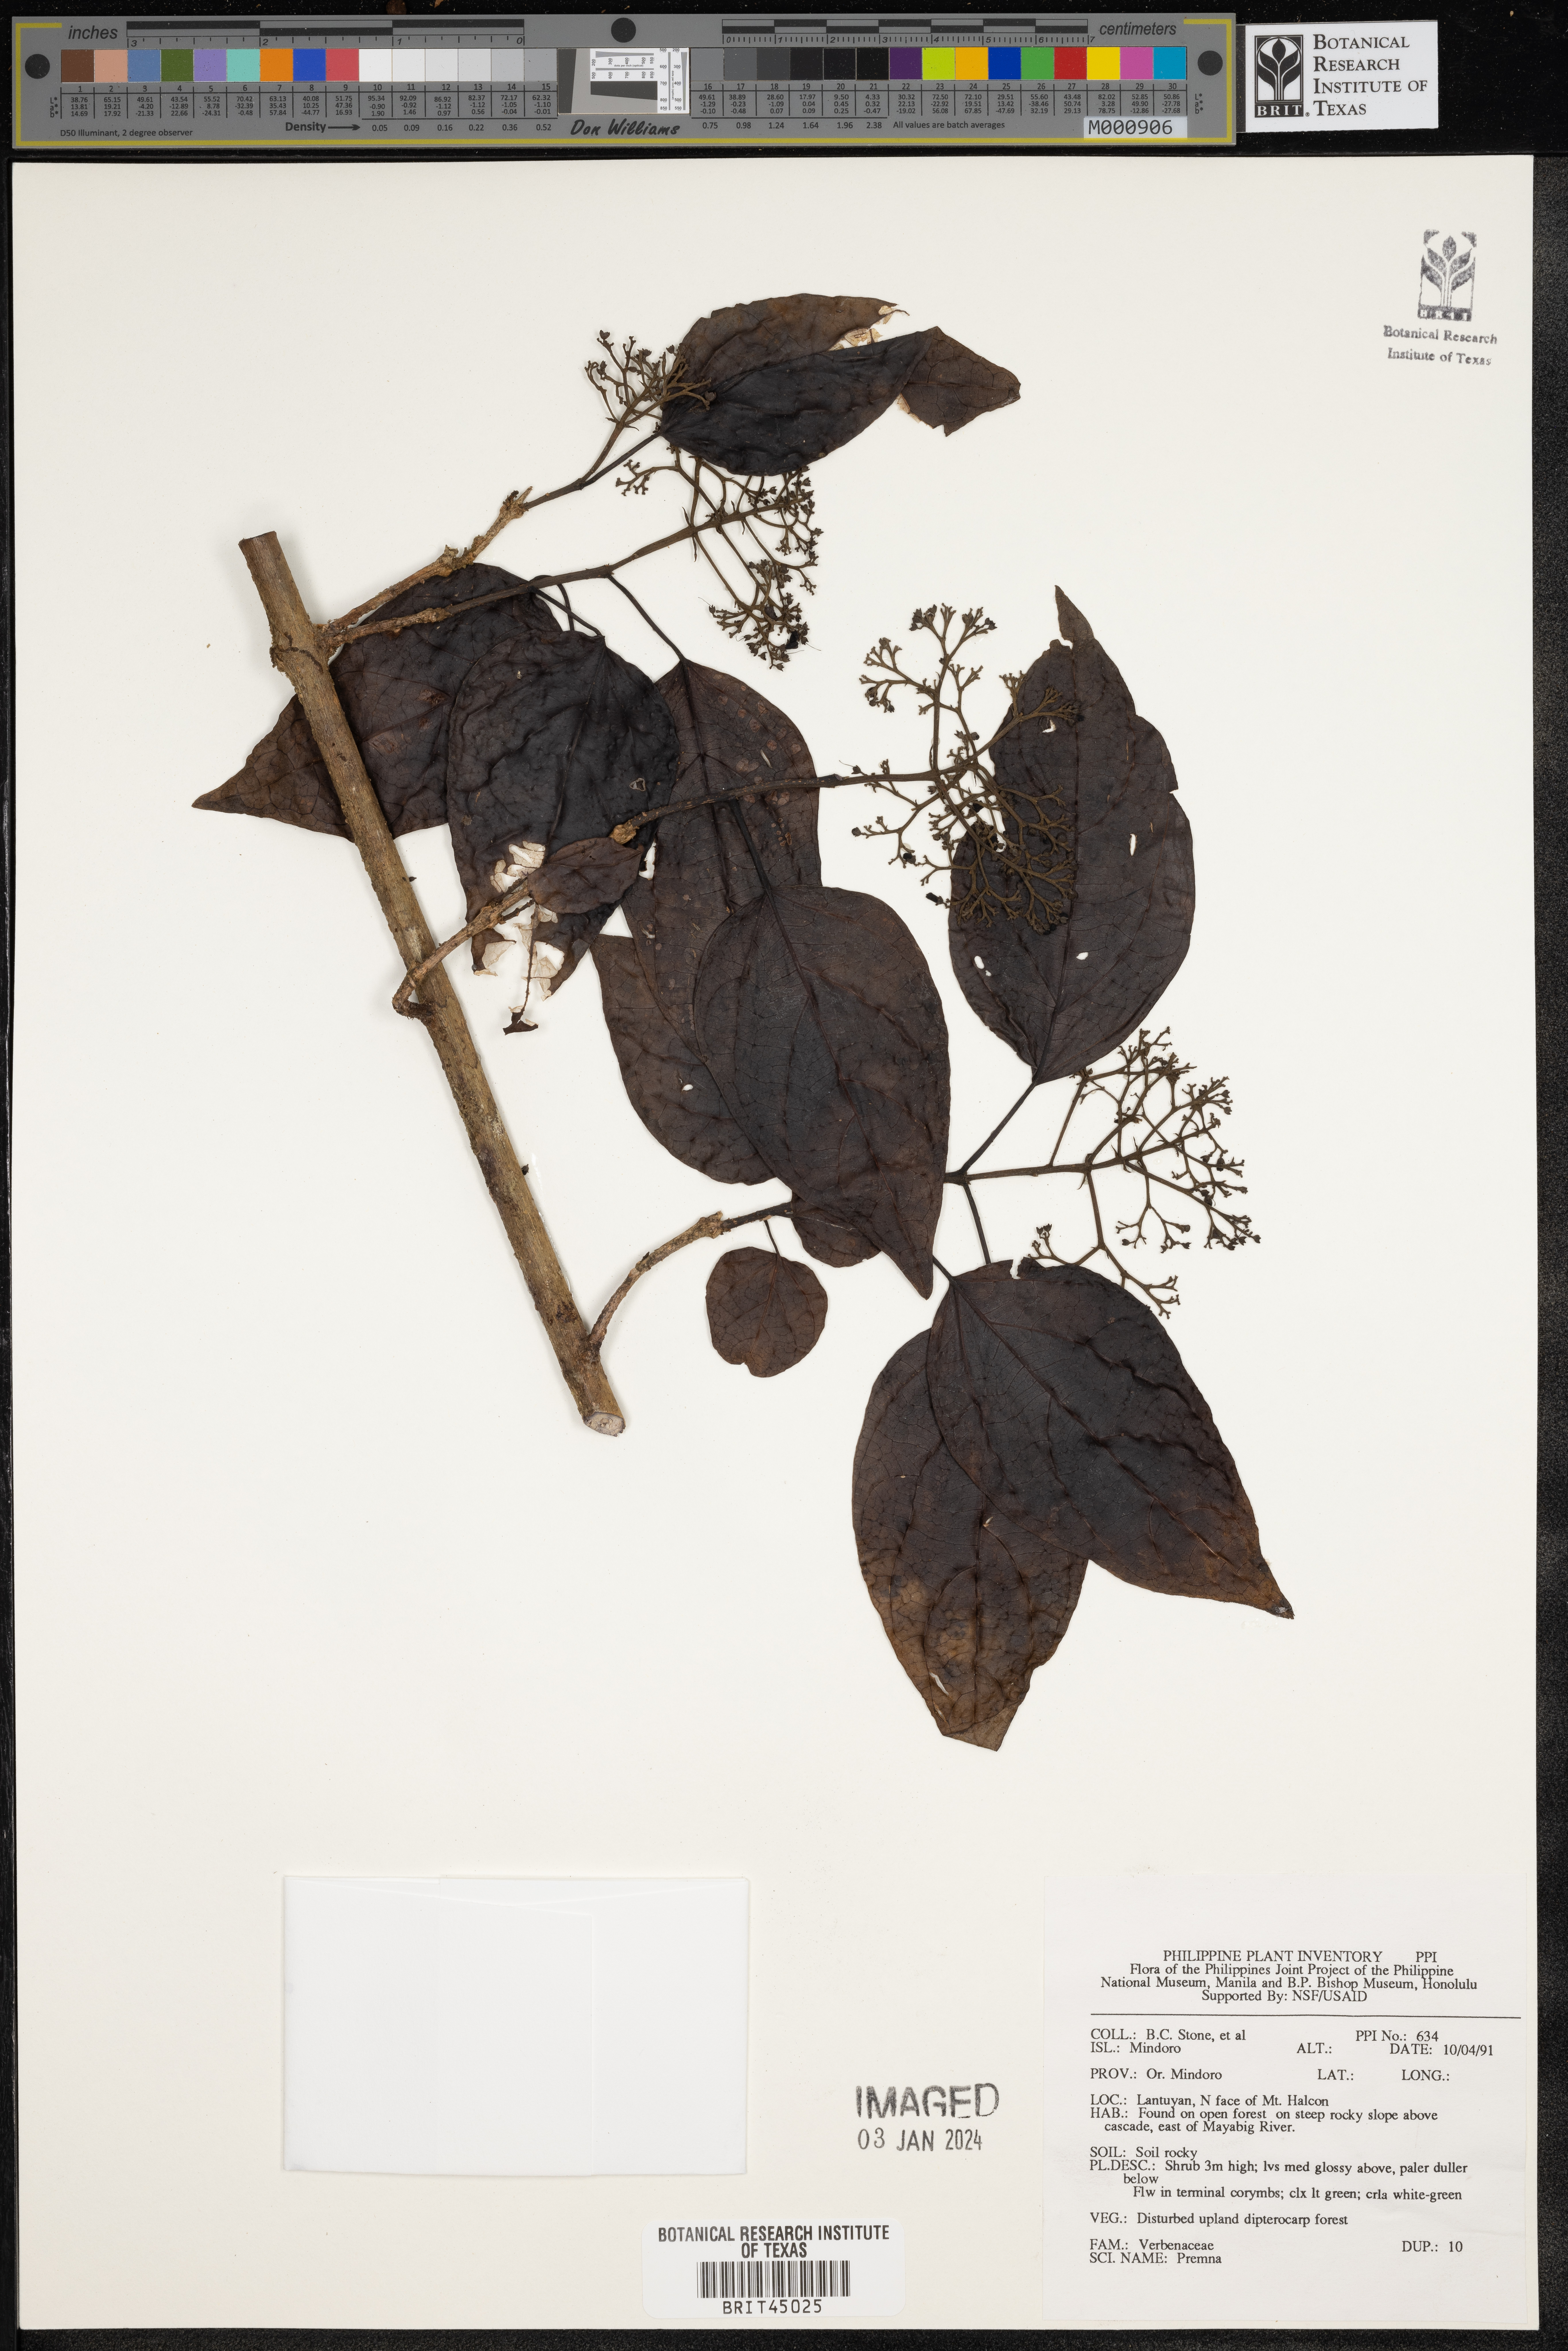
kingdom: Plantae
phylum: Tracheophyta
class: Magnoliopsida
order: Lamiales
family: Lamiaceae
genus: Premna
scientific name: Premna
